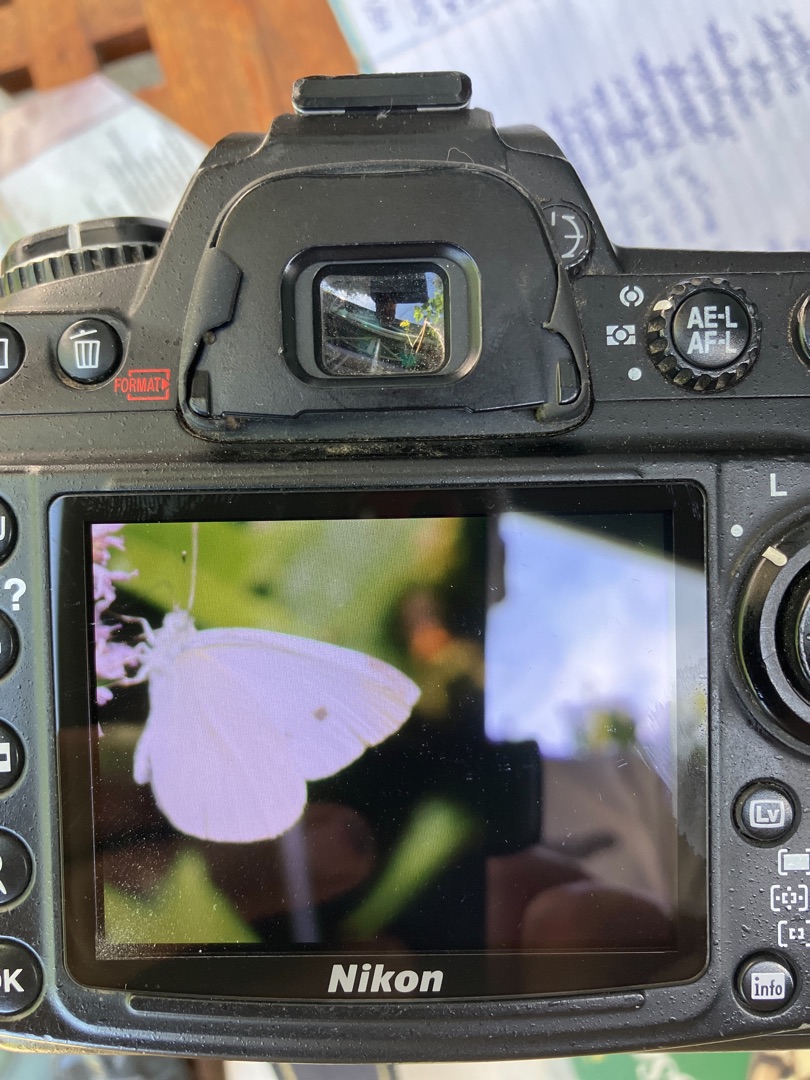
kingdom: Animalia
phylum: Arthropoda
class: Insecta
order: Lepidoptera
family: Pieridae
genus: Pieris
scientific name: Pieris rapae
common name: Lille kålsommerfugl
